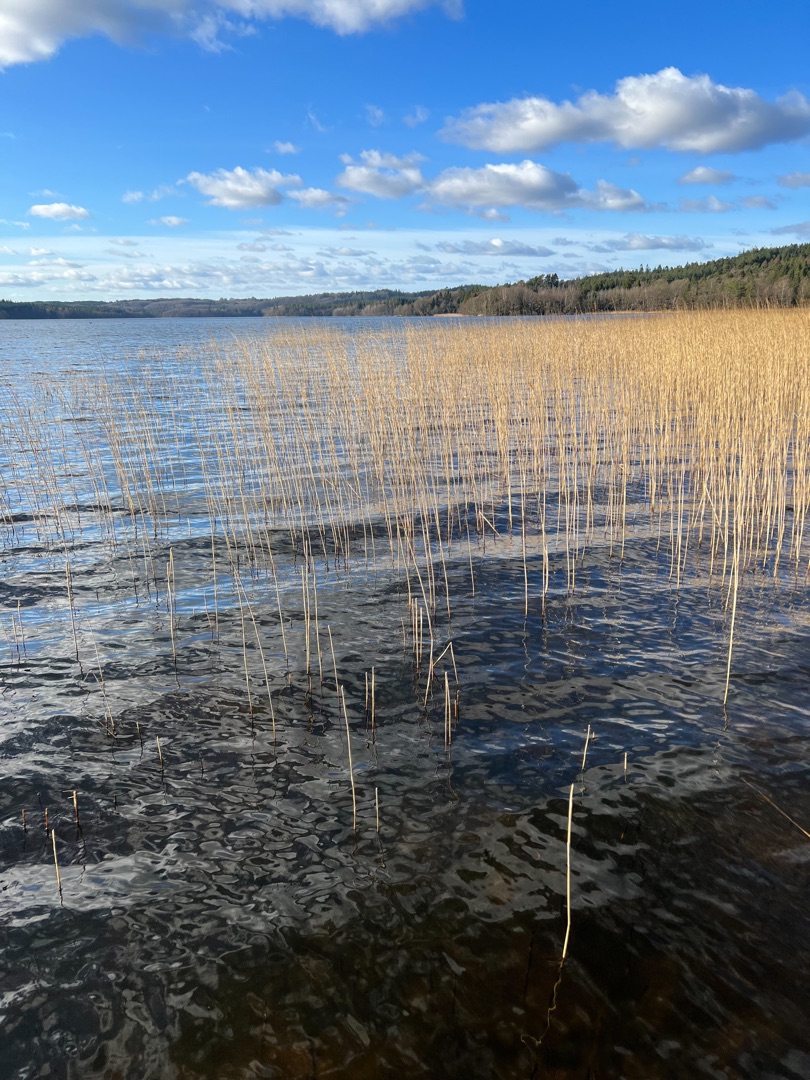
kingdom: Plantae
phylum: Tracheophyta
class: Liliopsida
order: Poales
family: Poaceae
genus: Phragmites
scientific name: Phragmites australis
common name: Tagrør
